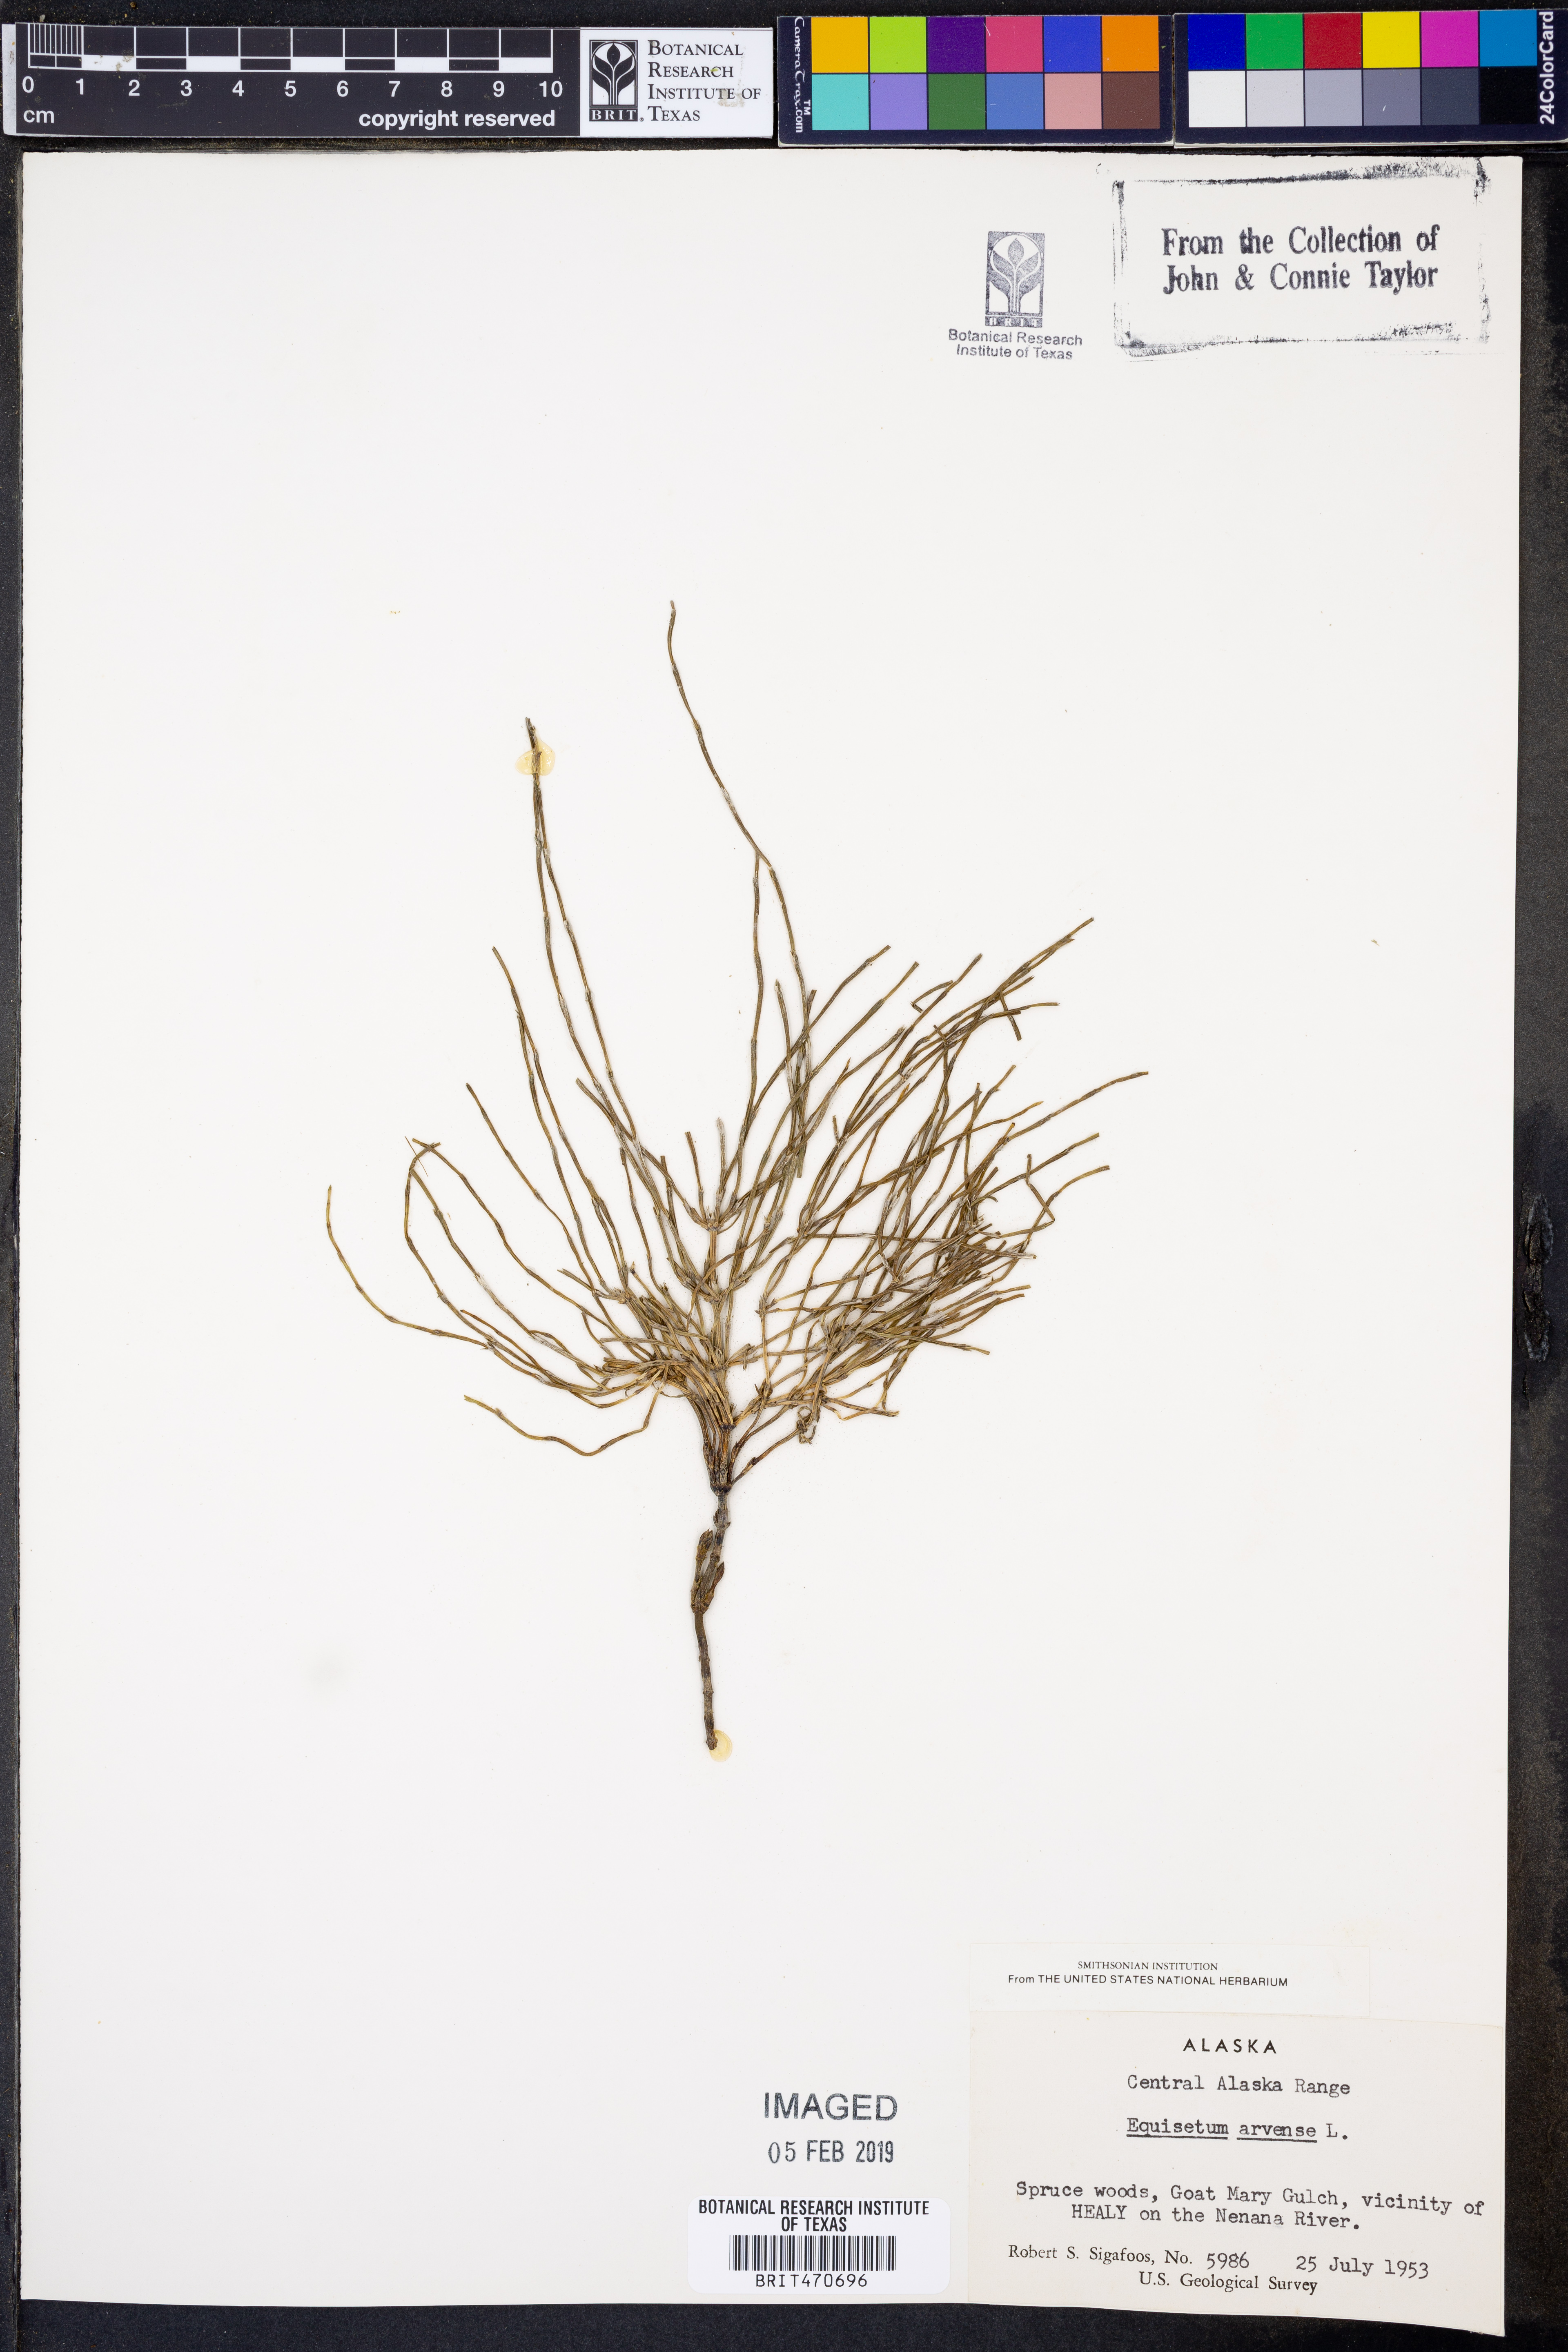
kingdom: Plantae
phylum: Tracheophyta
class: Polypodiopsida
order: Equisetales
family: Equisetaceae
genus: Equisetum
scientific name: Equisetum arvense
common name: Field horsetail
